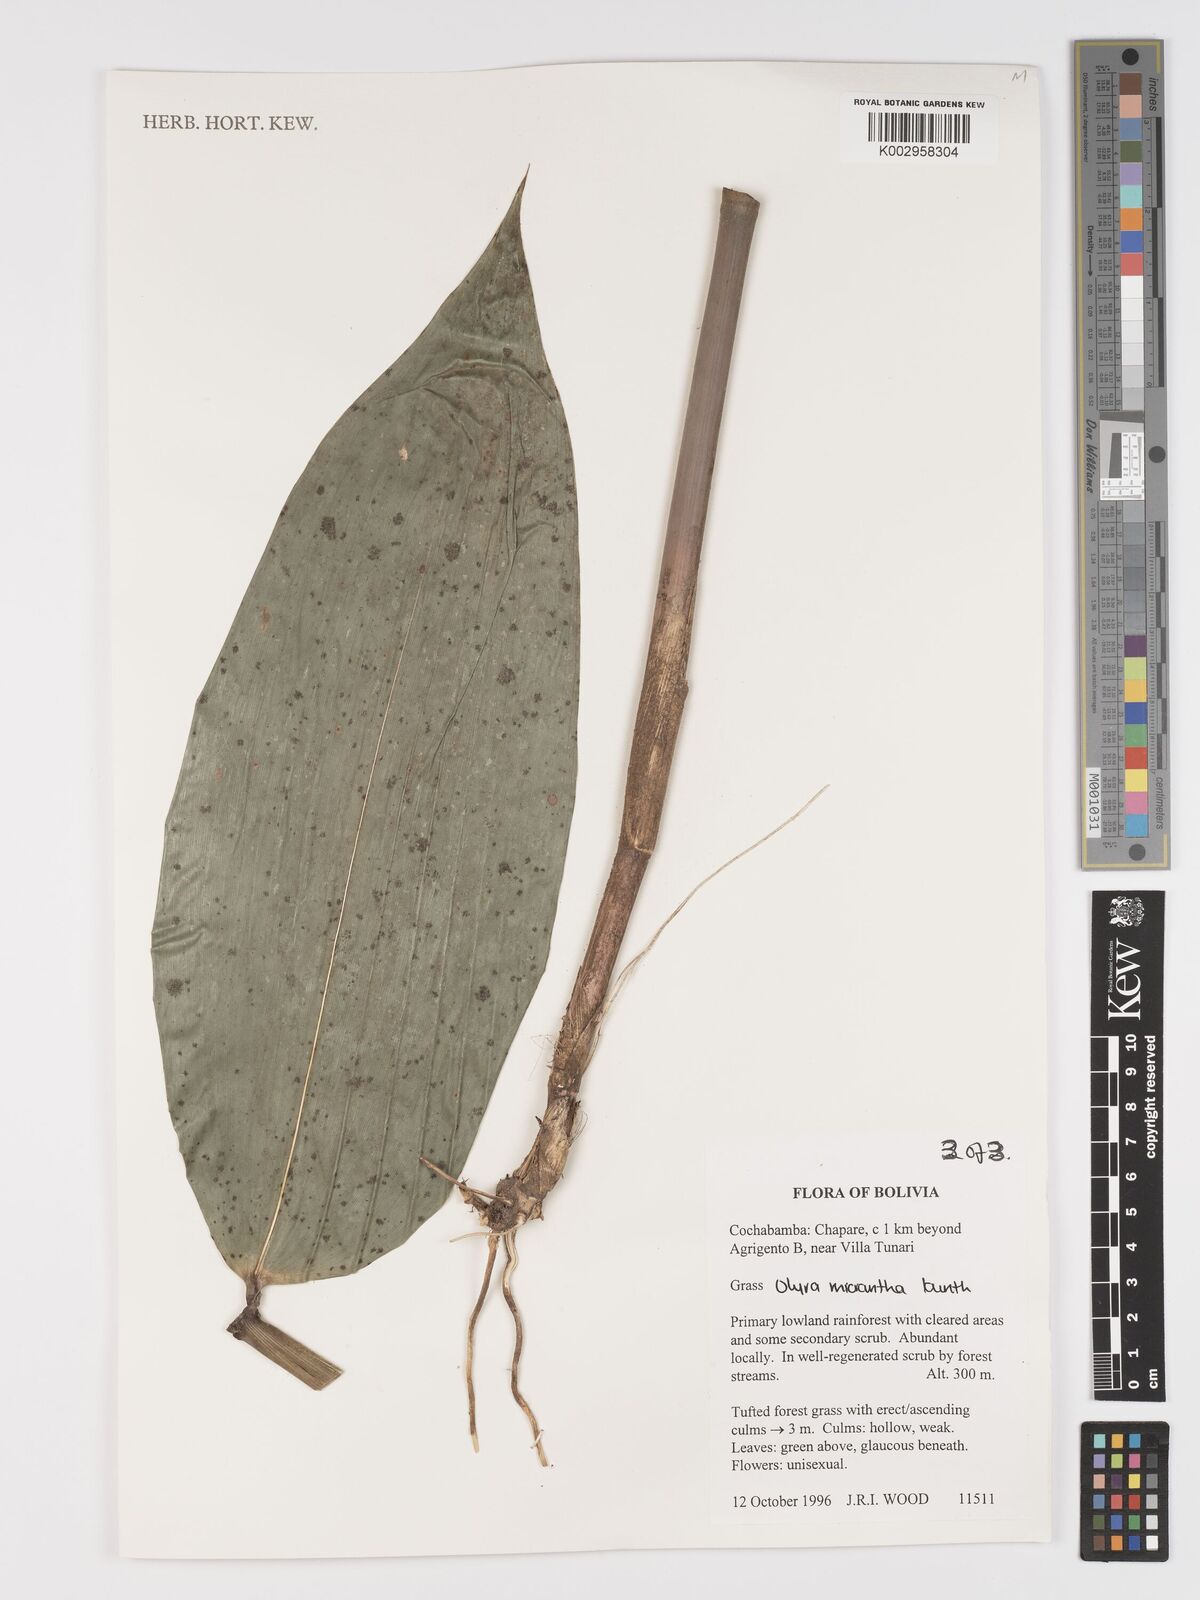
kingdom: Plantae
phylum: Tracheophyta
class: Liliopsida
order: Poales
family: Poaceae
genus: Taquara
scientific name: Taquara micrantha
